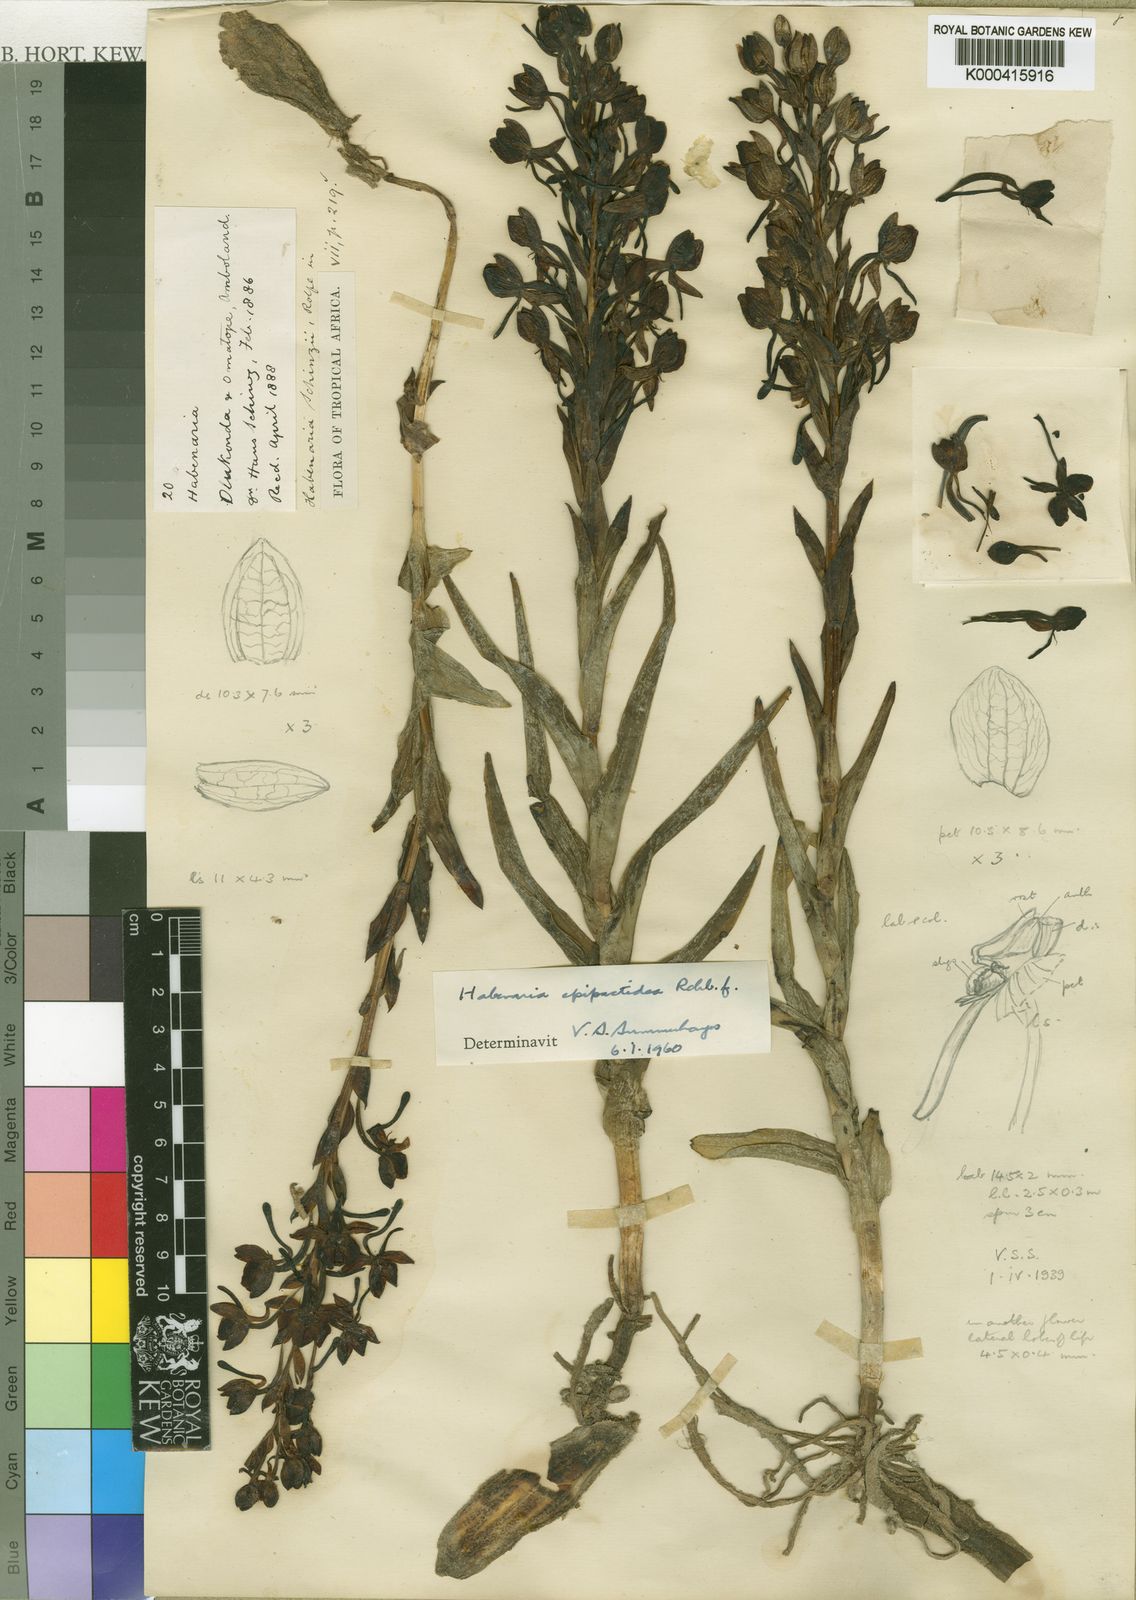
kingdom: Plantae
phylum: Tracheophyta
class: Liliopsida
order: Asparagales
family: Orchidaceae
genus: Habenaria
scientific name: Habenaria epipactidea
